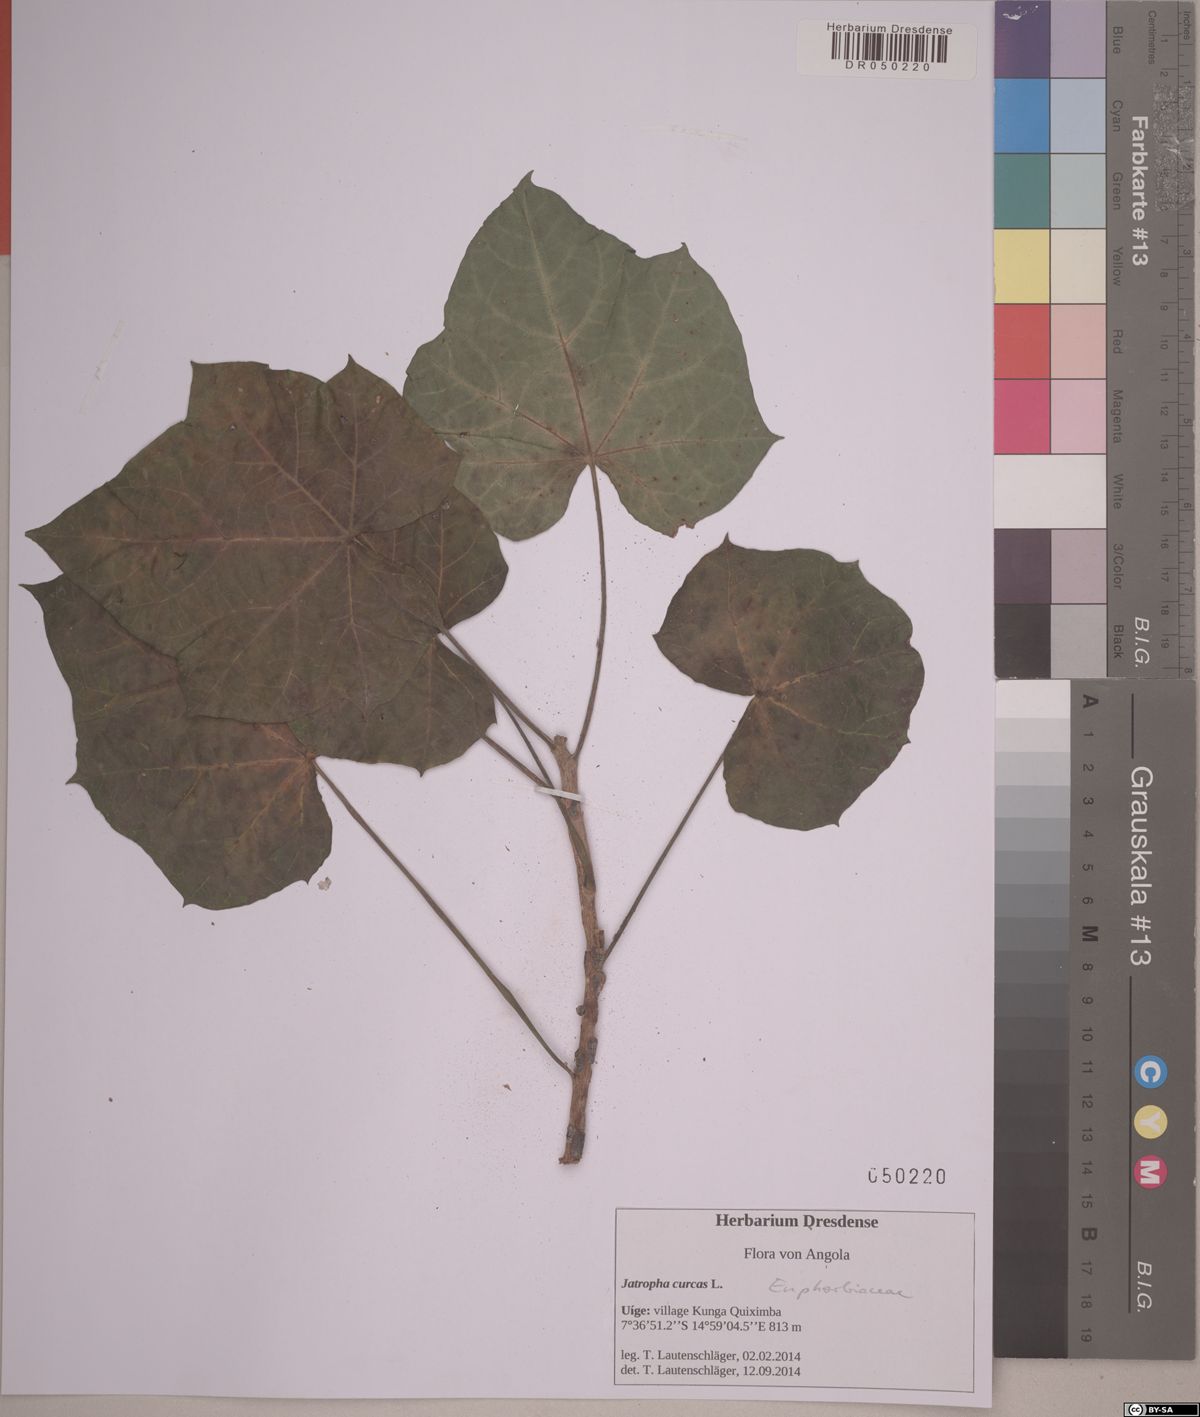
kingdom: Plantae
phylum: Tracheophyta
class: Magnoliopsida
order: Malpighiales
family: Euphorbiaceae
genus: Jatropha
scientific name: Jatropha curcas
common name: Barbados nut
